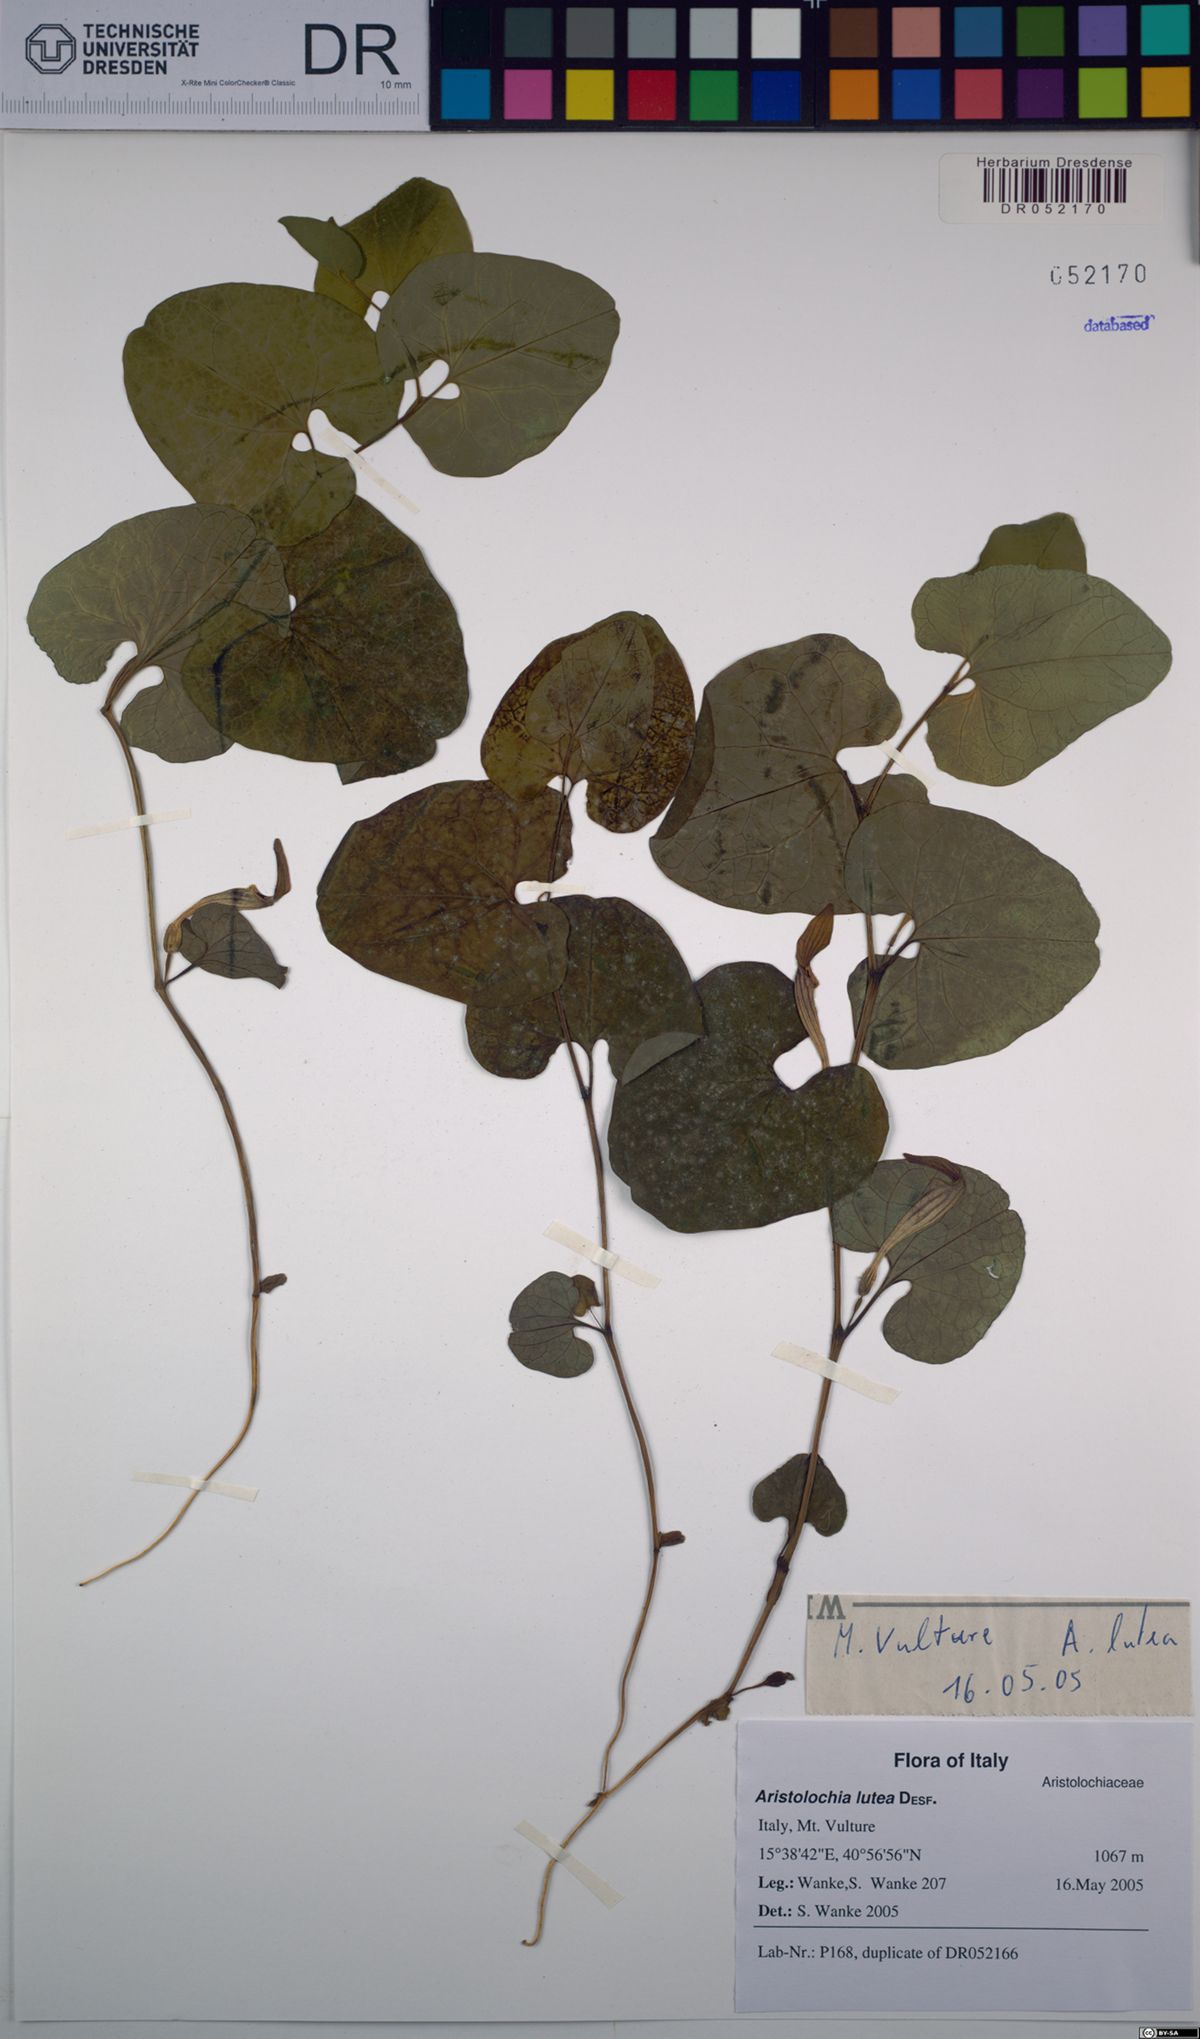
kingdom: Plantae
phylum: Tracheophyta
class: Magnoliopsida
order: Piperales
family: Aristolochiaceae
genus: Aristolochia
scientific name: Aristolochia lutea
